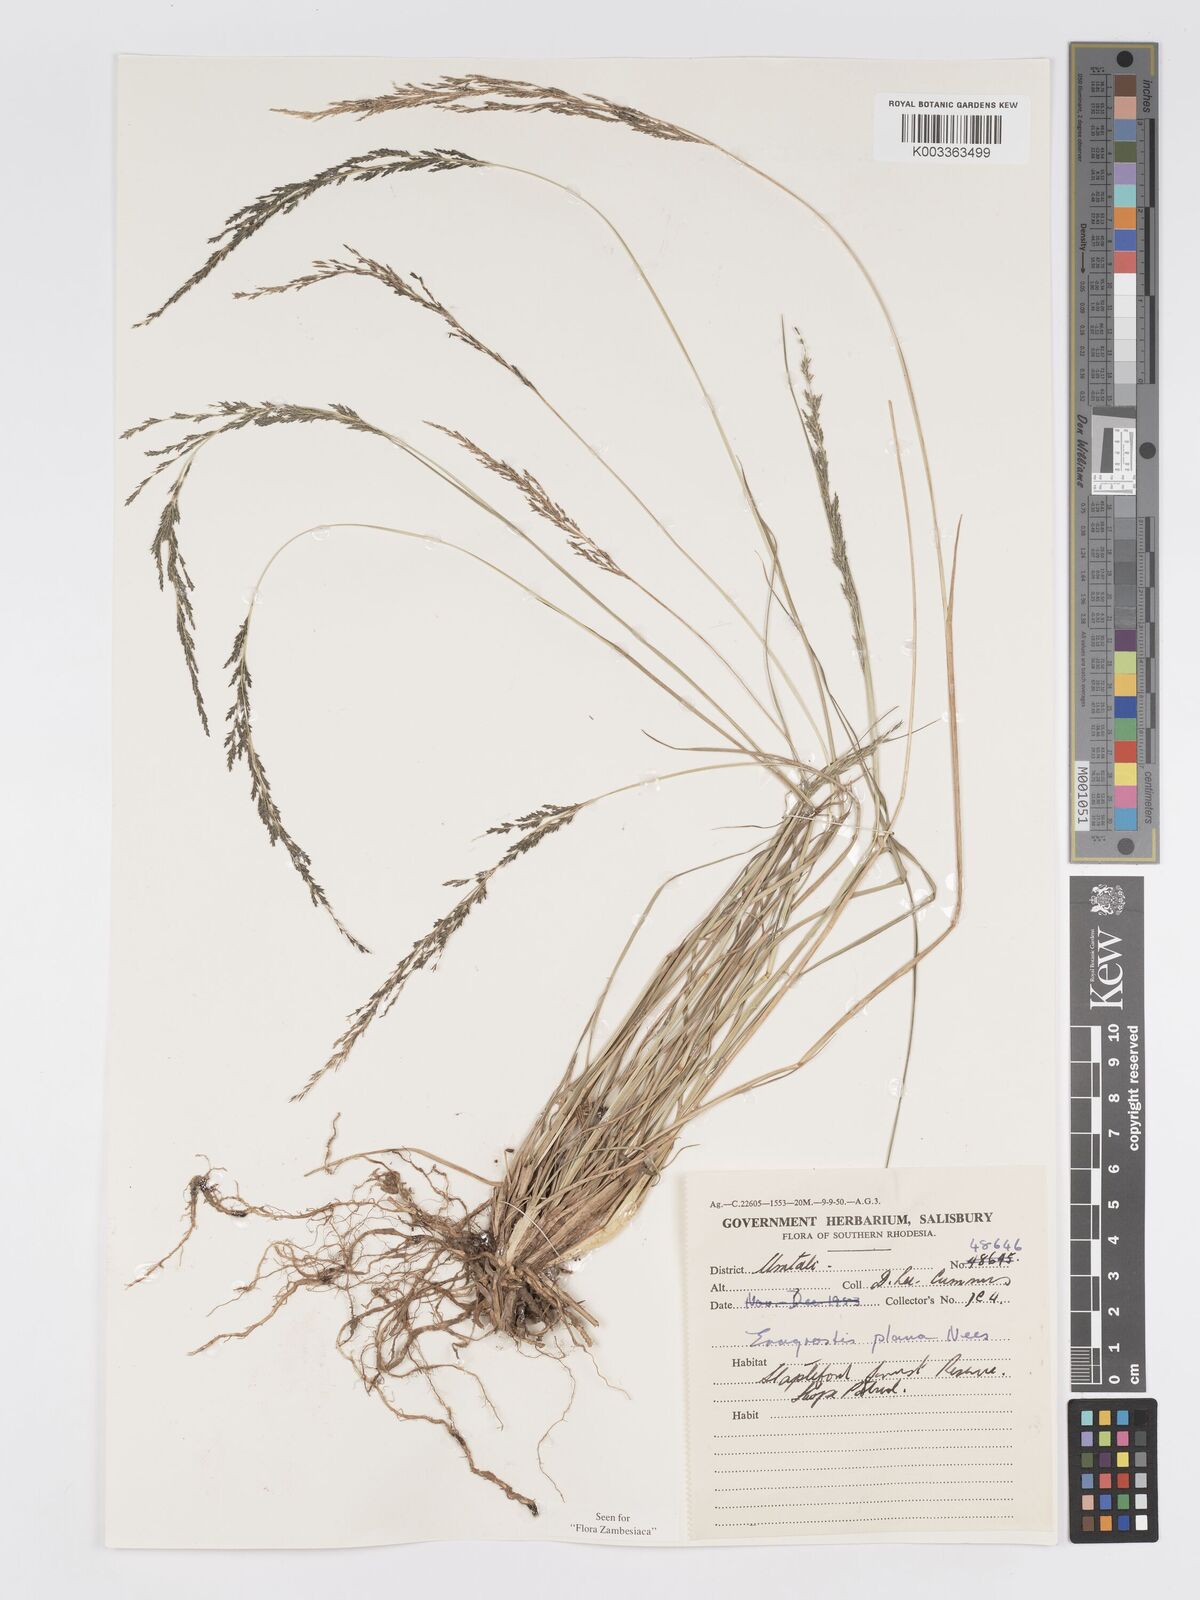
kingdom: Plantae
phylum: Tracheophyta
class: Liliopsida
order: Poales
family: Poaceae
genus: Eragrostis
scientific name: Eragrostis plana
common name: South african lovegrass
